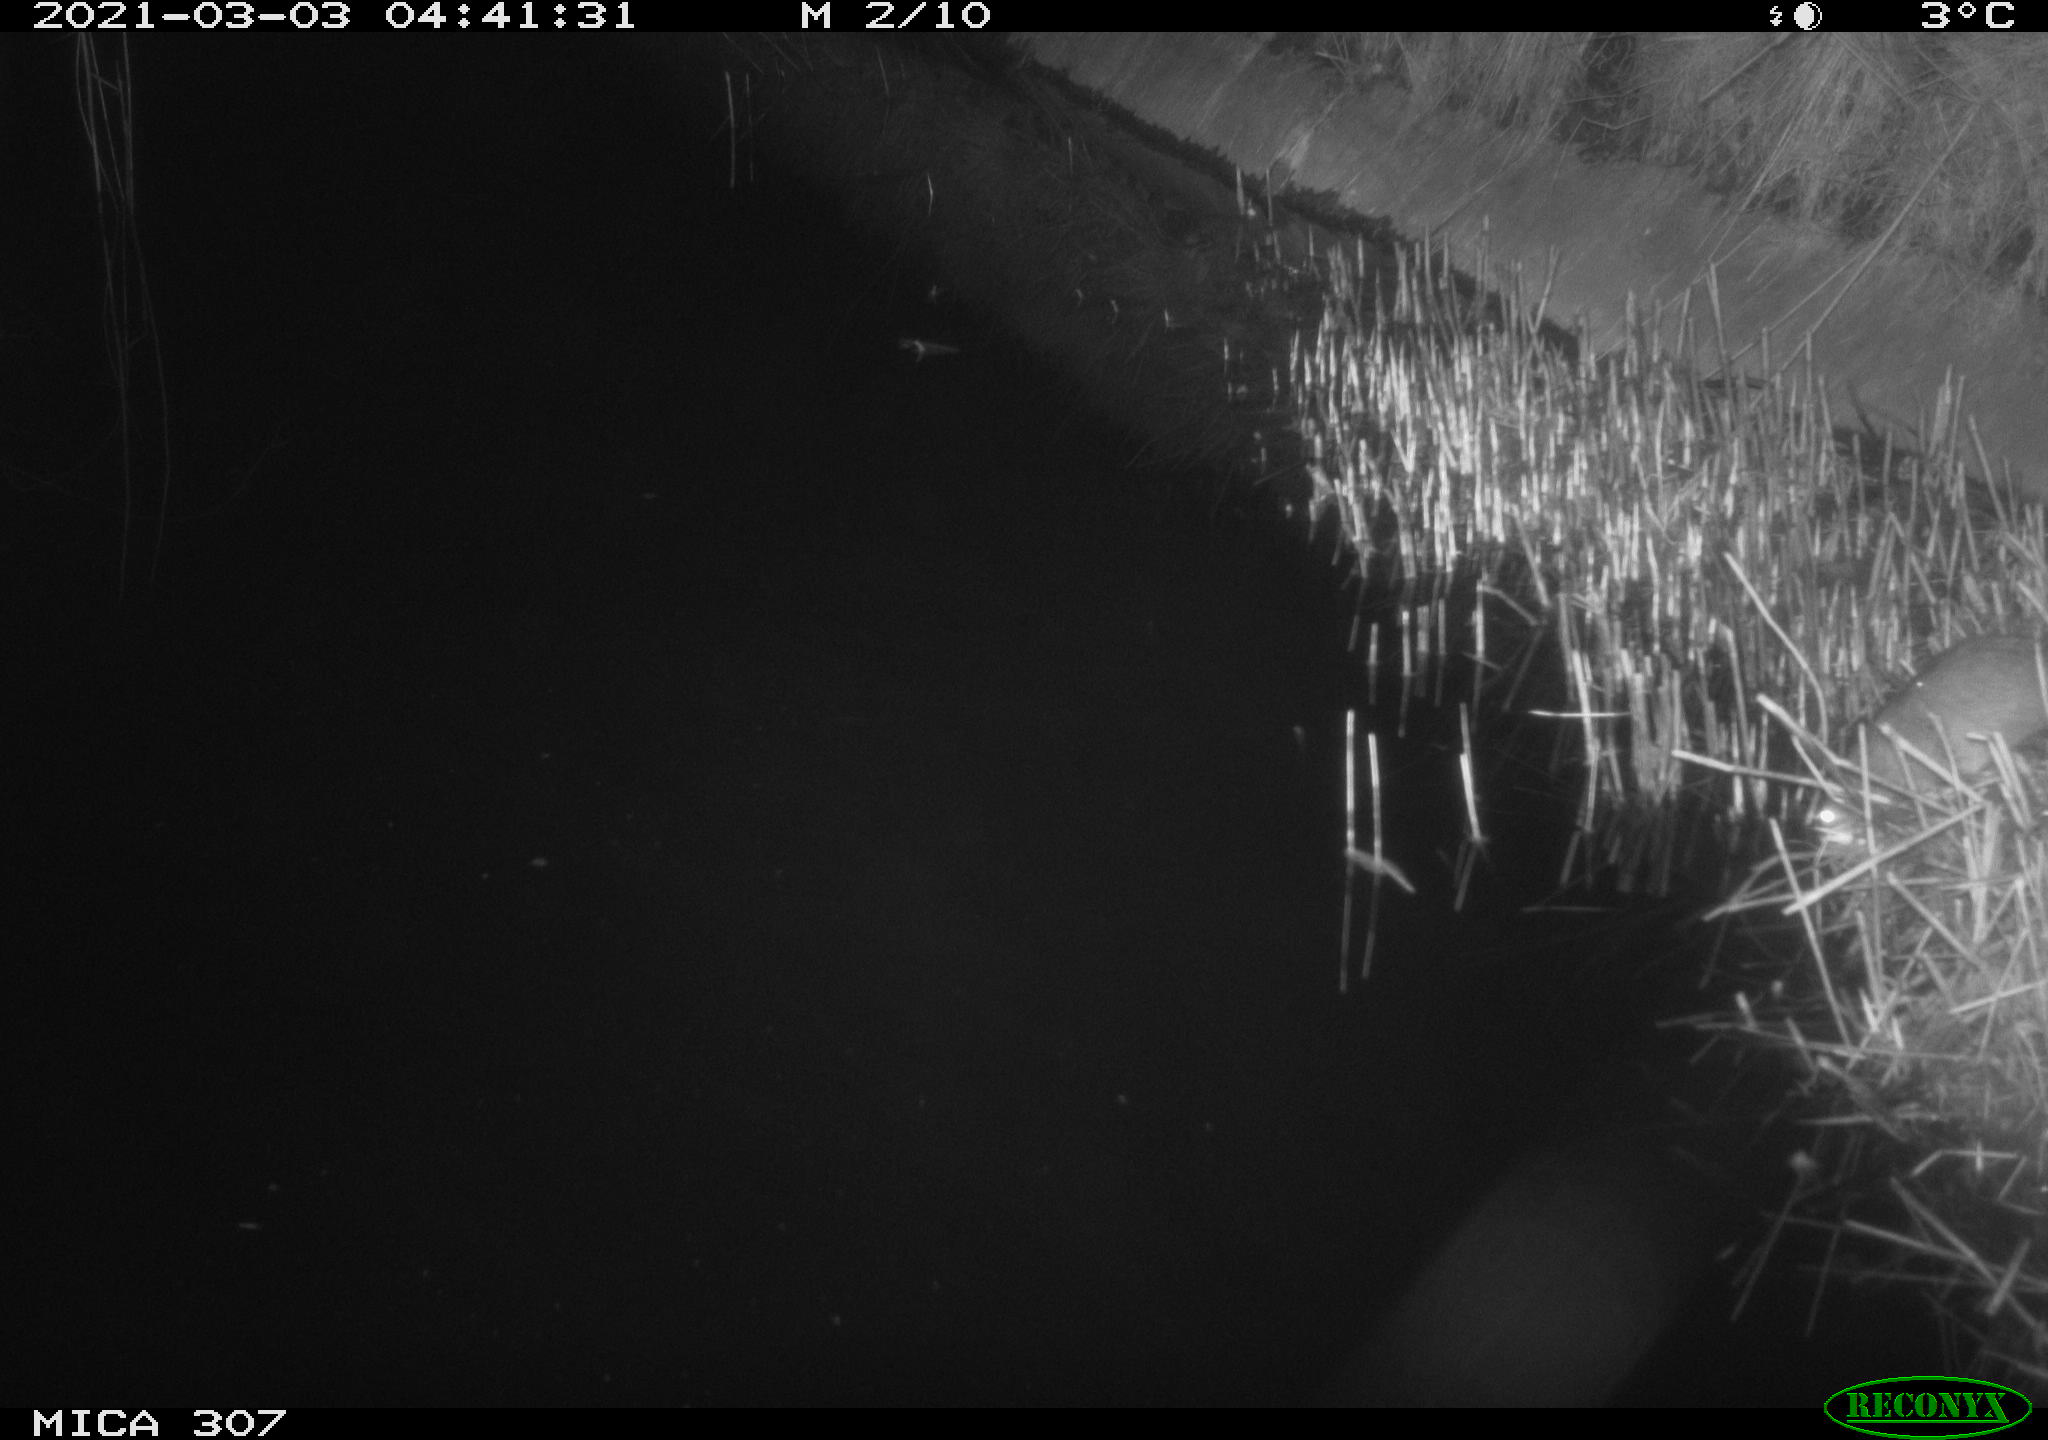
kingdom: Animalia
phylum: Chordata
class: Mammalia
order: Rodentia
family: Muridae
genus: Rattus
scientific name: Rattus norvegicus
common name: Brown rat
